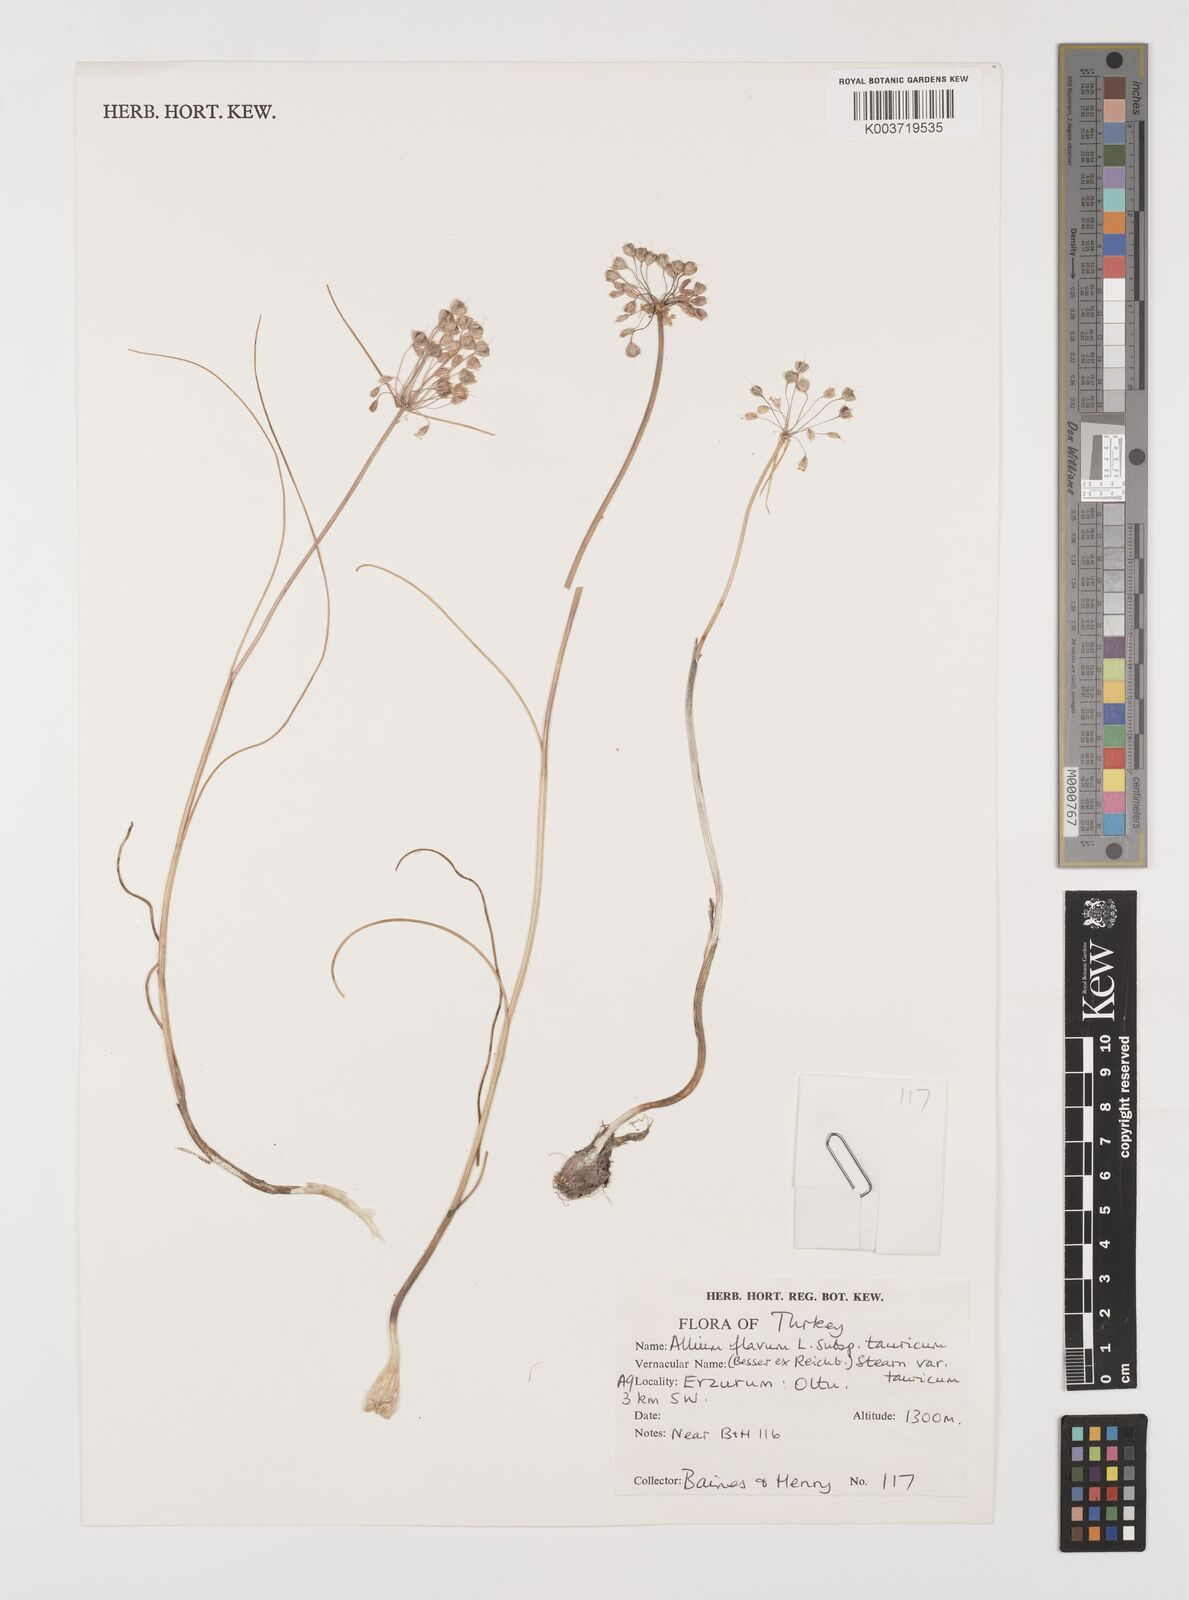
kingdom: Plantae
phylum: Tracheophyta
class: Liliopsida
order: Asparagales
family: Amaryllidaceae
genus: Allium
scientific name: Allium flavum
